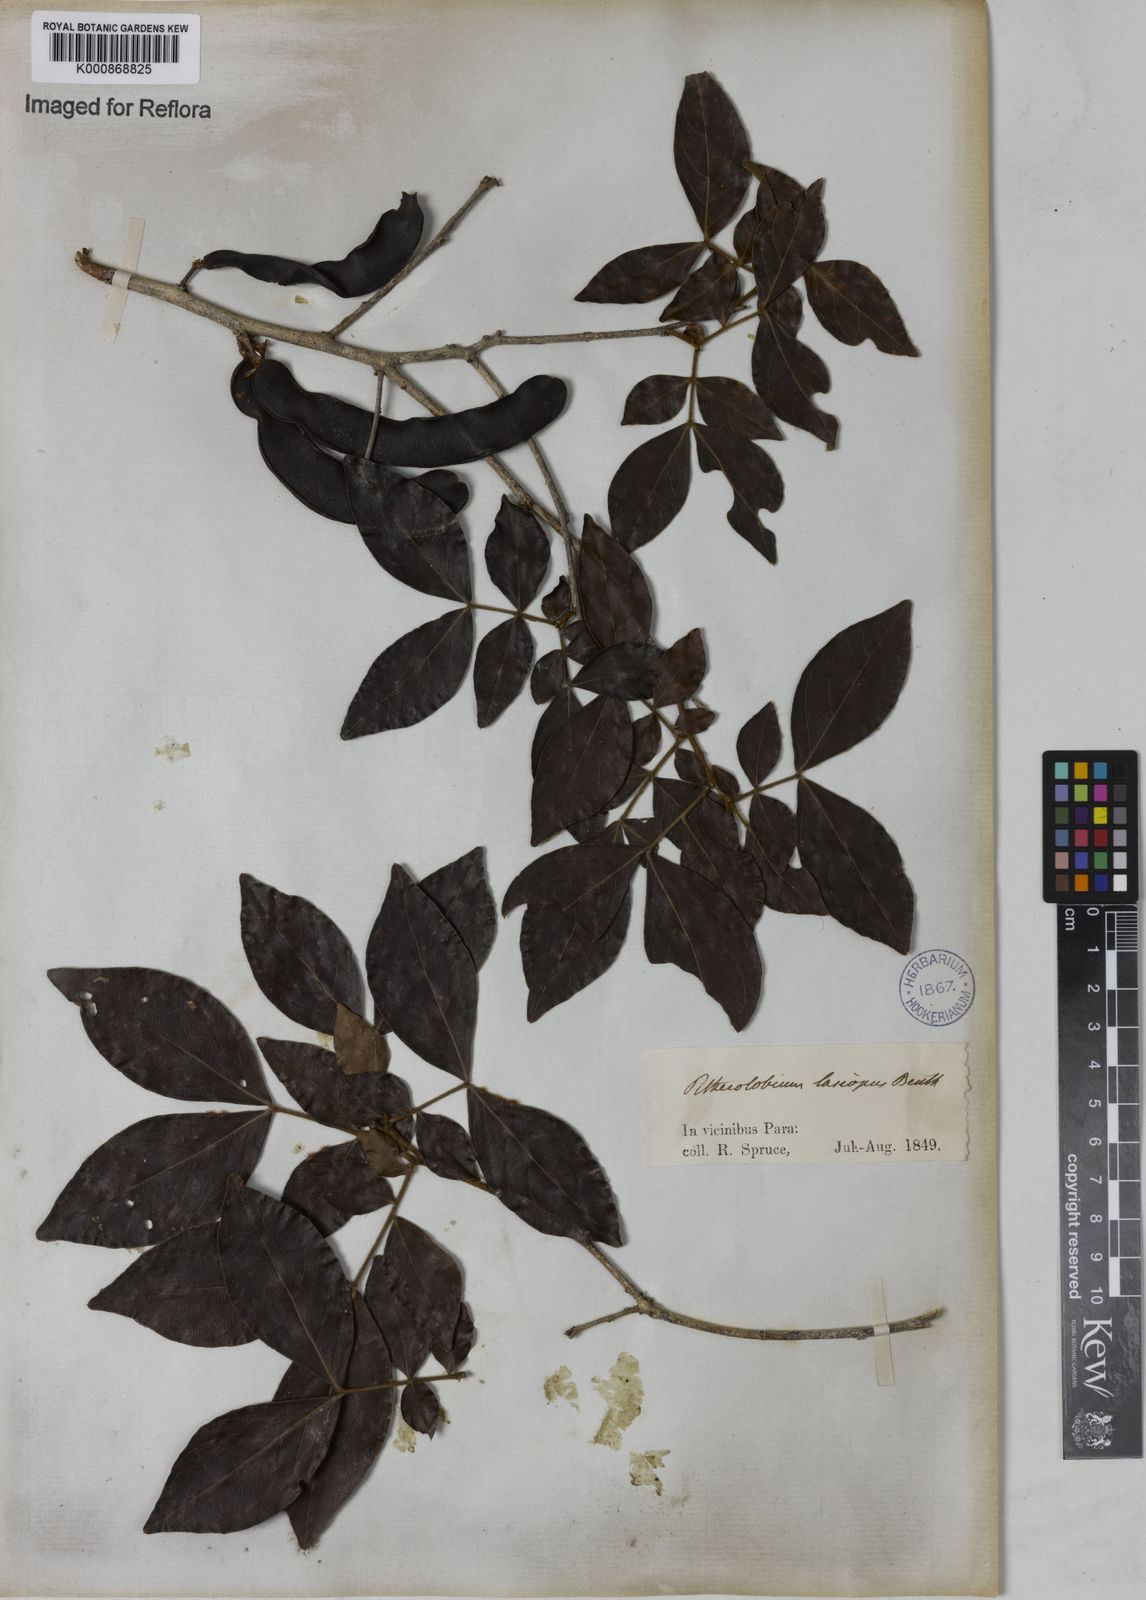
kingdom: Plantae
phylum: Tracheophyta
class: Magnoliopsida
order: Fabales
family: Fabaceae
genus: Zygia
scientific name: Zygia
